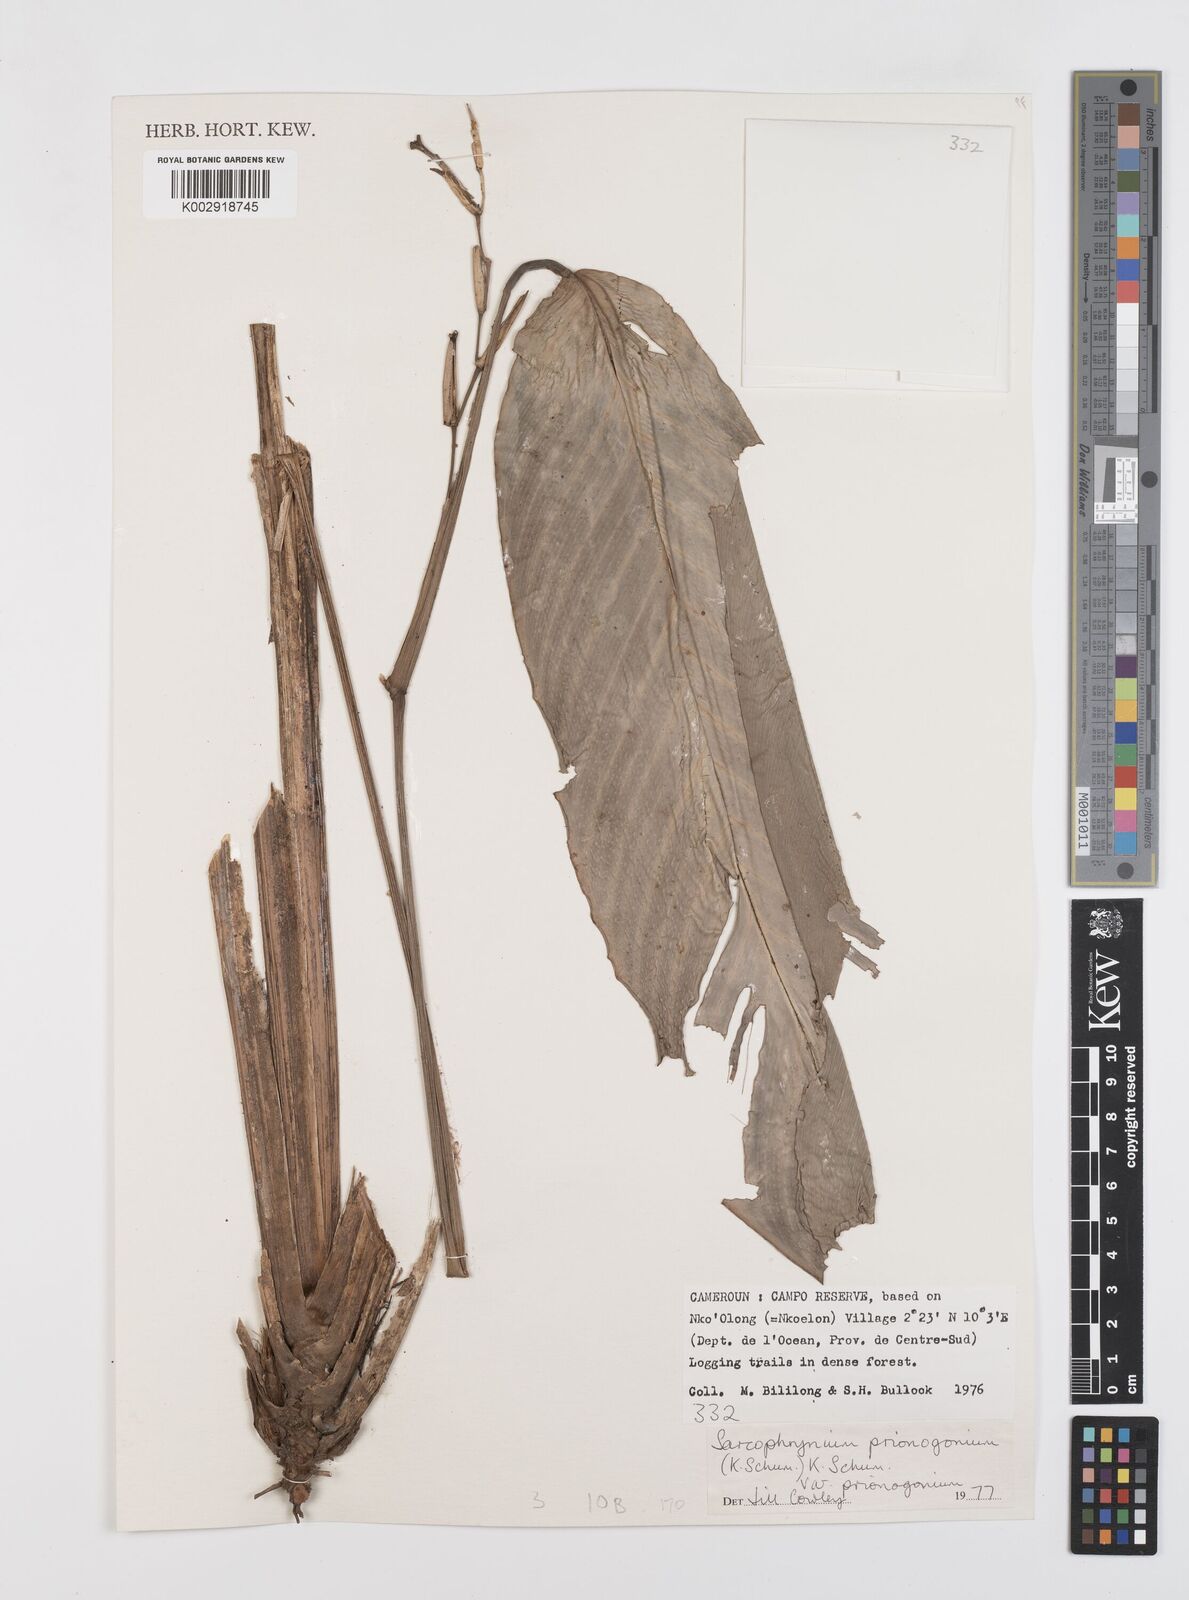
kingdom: Plantae
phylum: Tracheophyta
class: Liliopsida
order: Zingiberales
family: Marantaceae
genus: Sarcophrynium
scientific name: Sarcophrynium prionogonium
